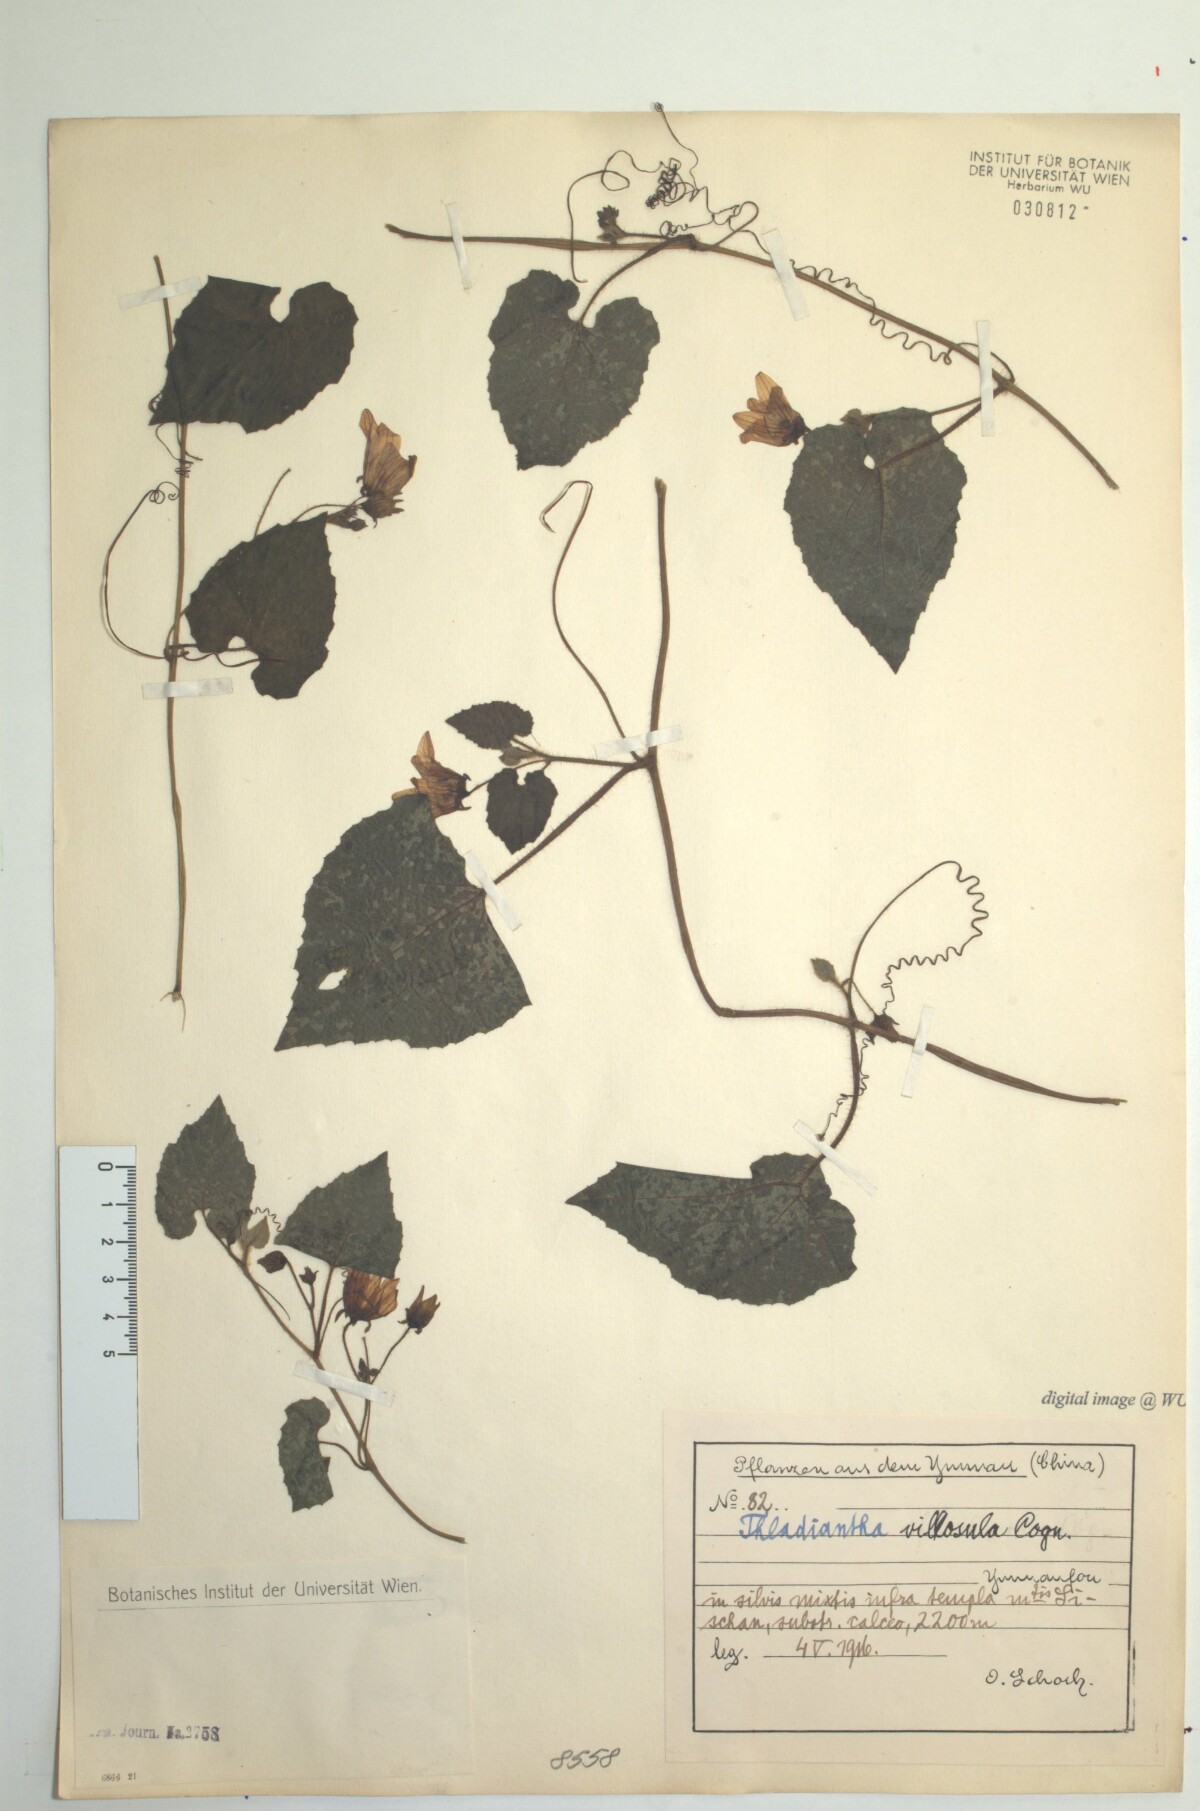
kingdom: Plantae
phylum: Tracheophyta
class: Magnoliopsida
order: Cucurbitales
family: Cucurbitaceae
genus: Thladiantha
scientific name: Thladiantha villosula
